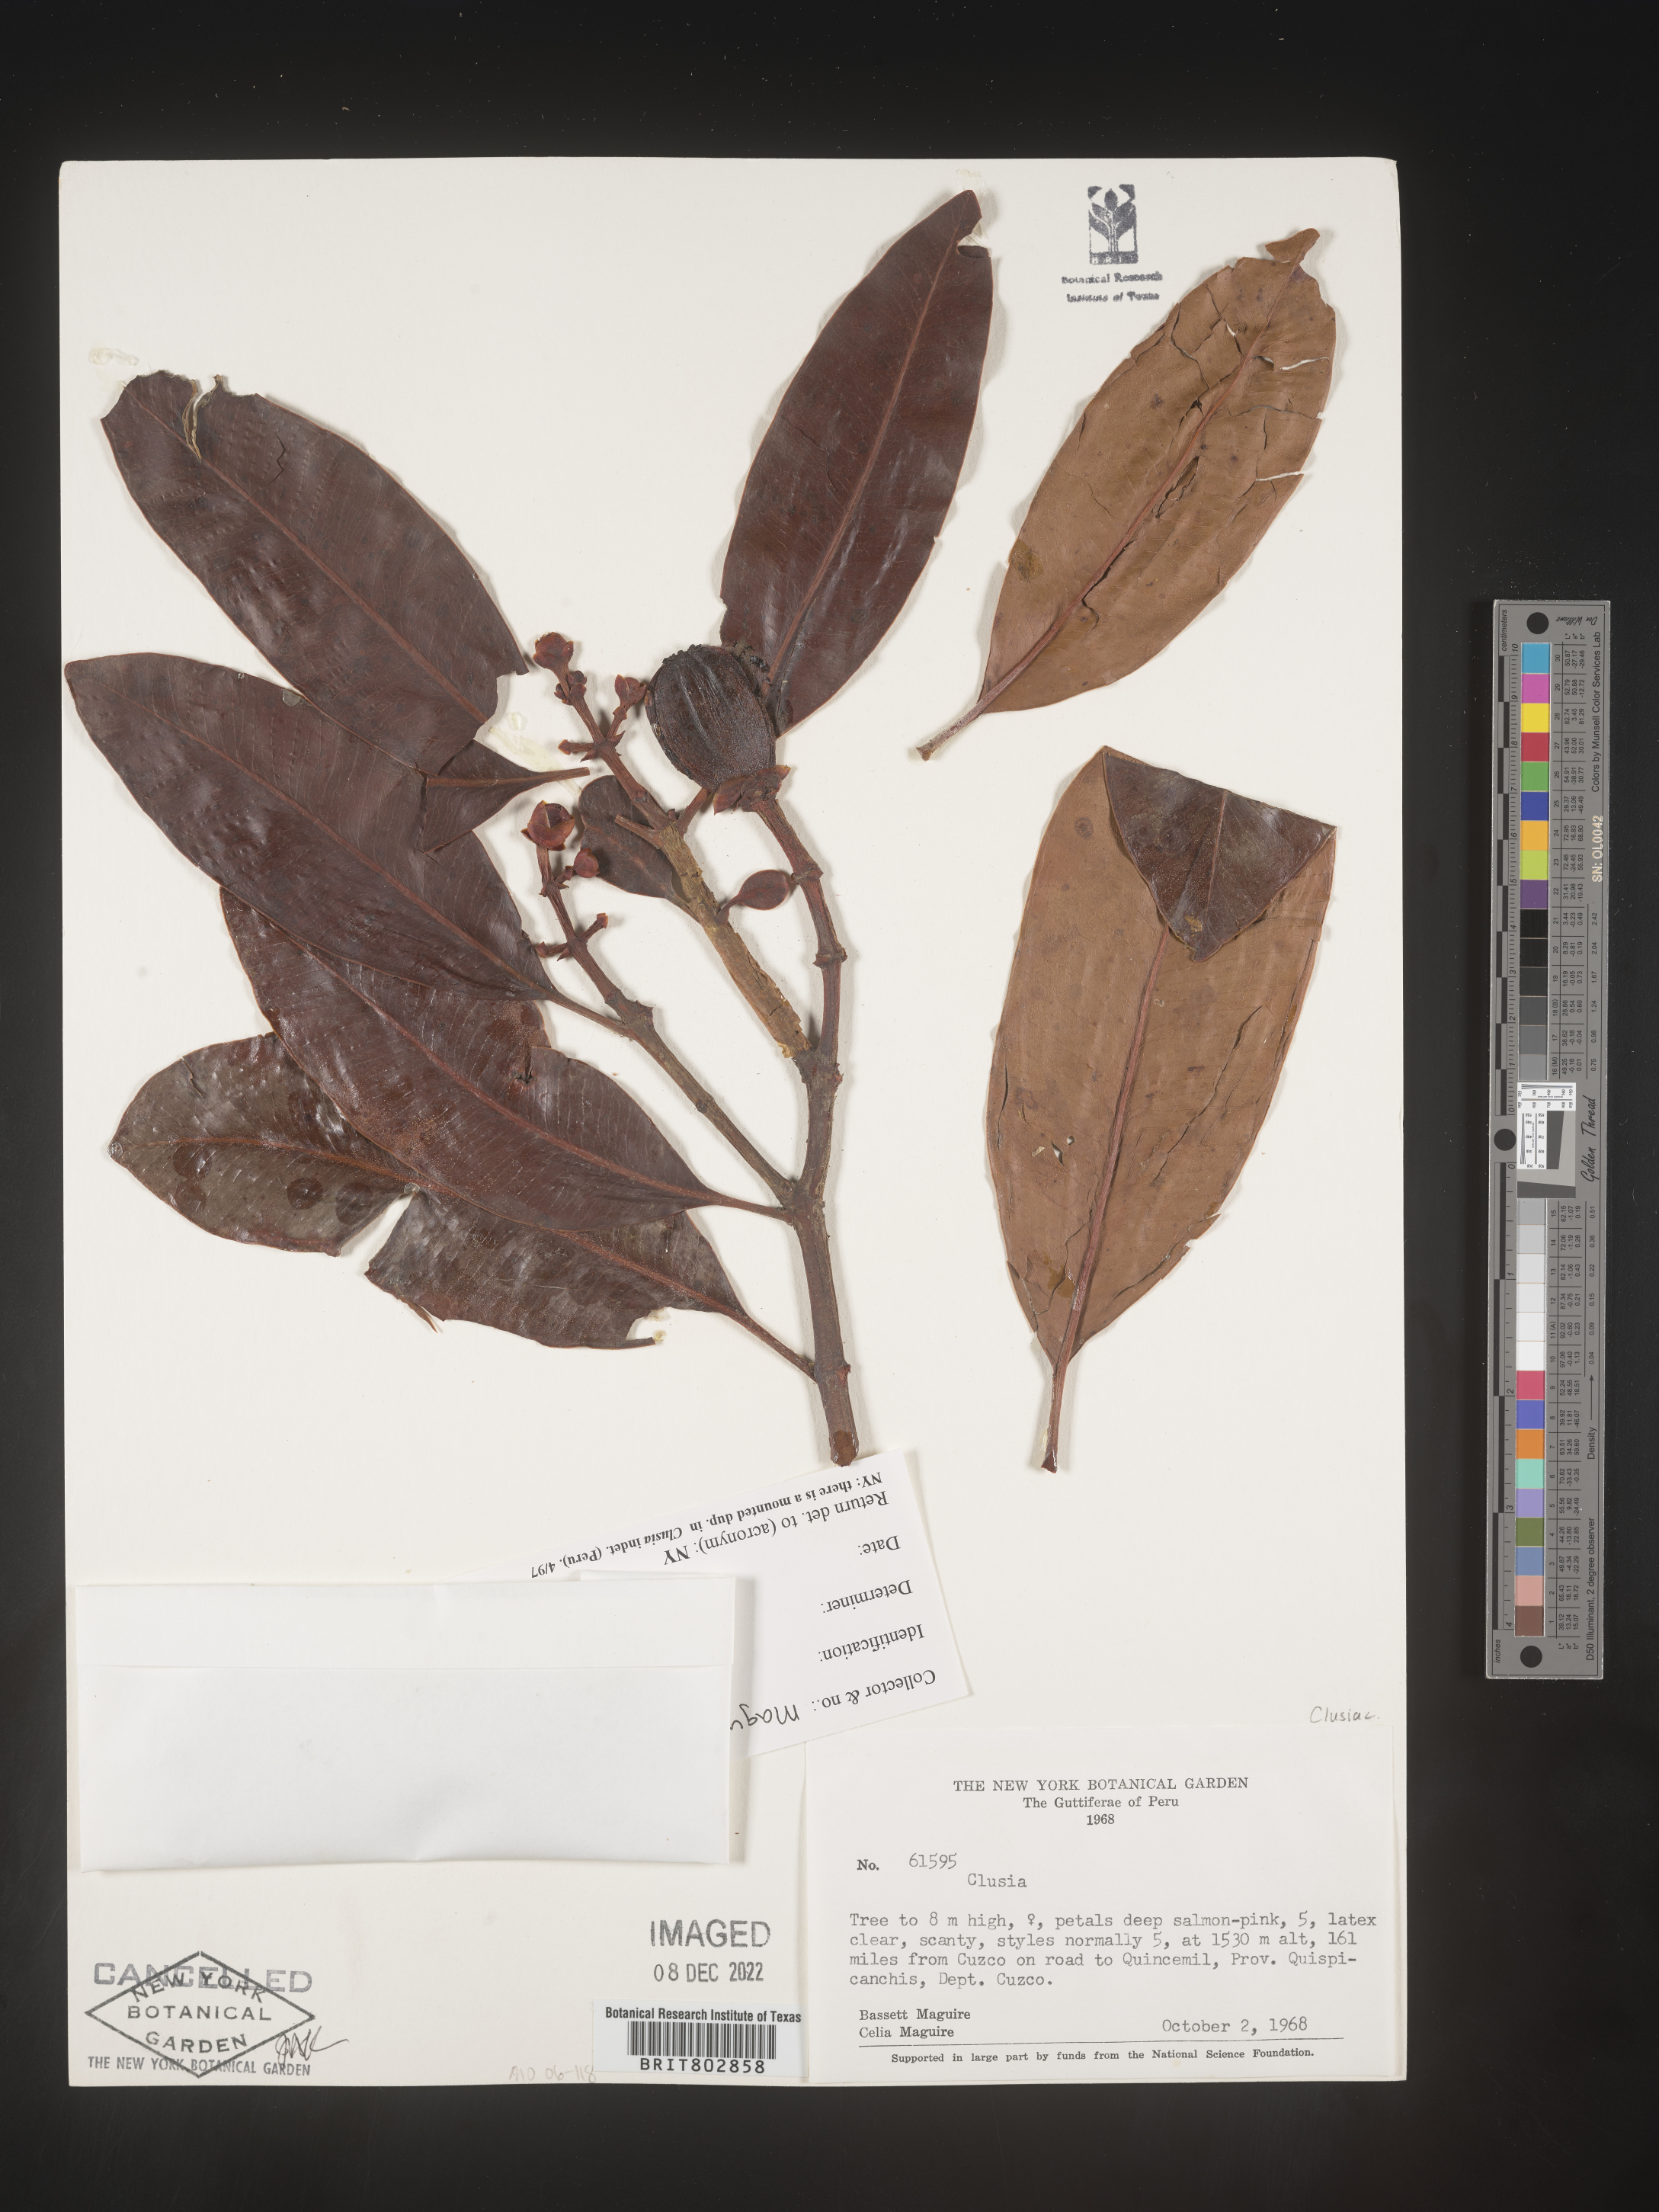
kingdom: Plantae
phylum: Tracheophyta
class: Magnoliopsida
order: Malpighiales
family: Clusiaceae
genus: Clusia
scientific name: Clusia
